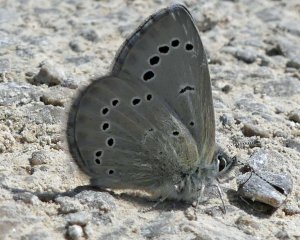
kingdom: Animalia
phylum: Arthropoda
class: Insecta
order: Lepidoptera
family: Lycaenidae
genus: Glaucopsyche
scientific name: Glaucopsyche lygdamus
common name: Silvery Blue
